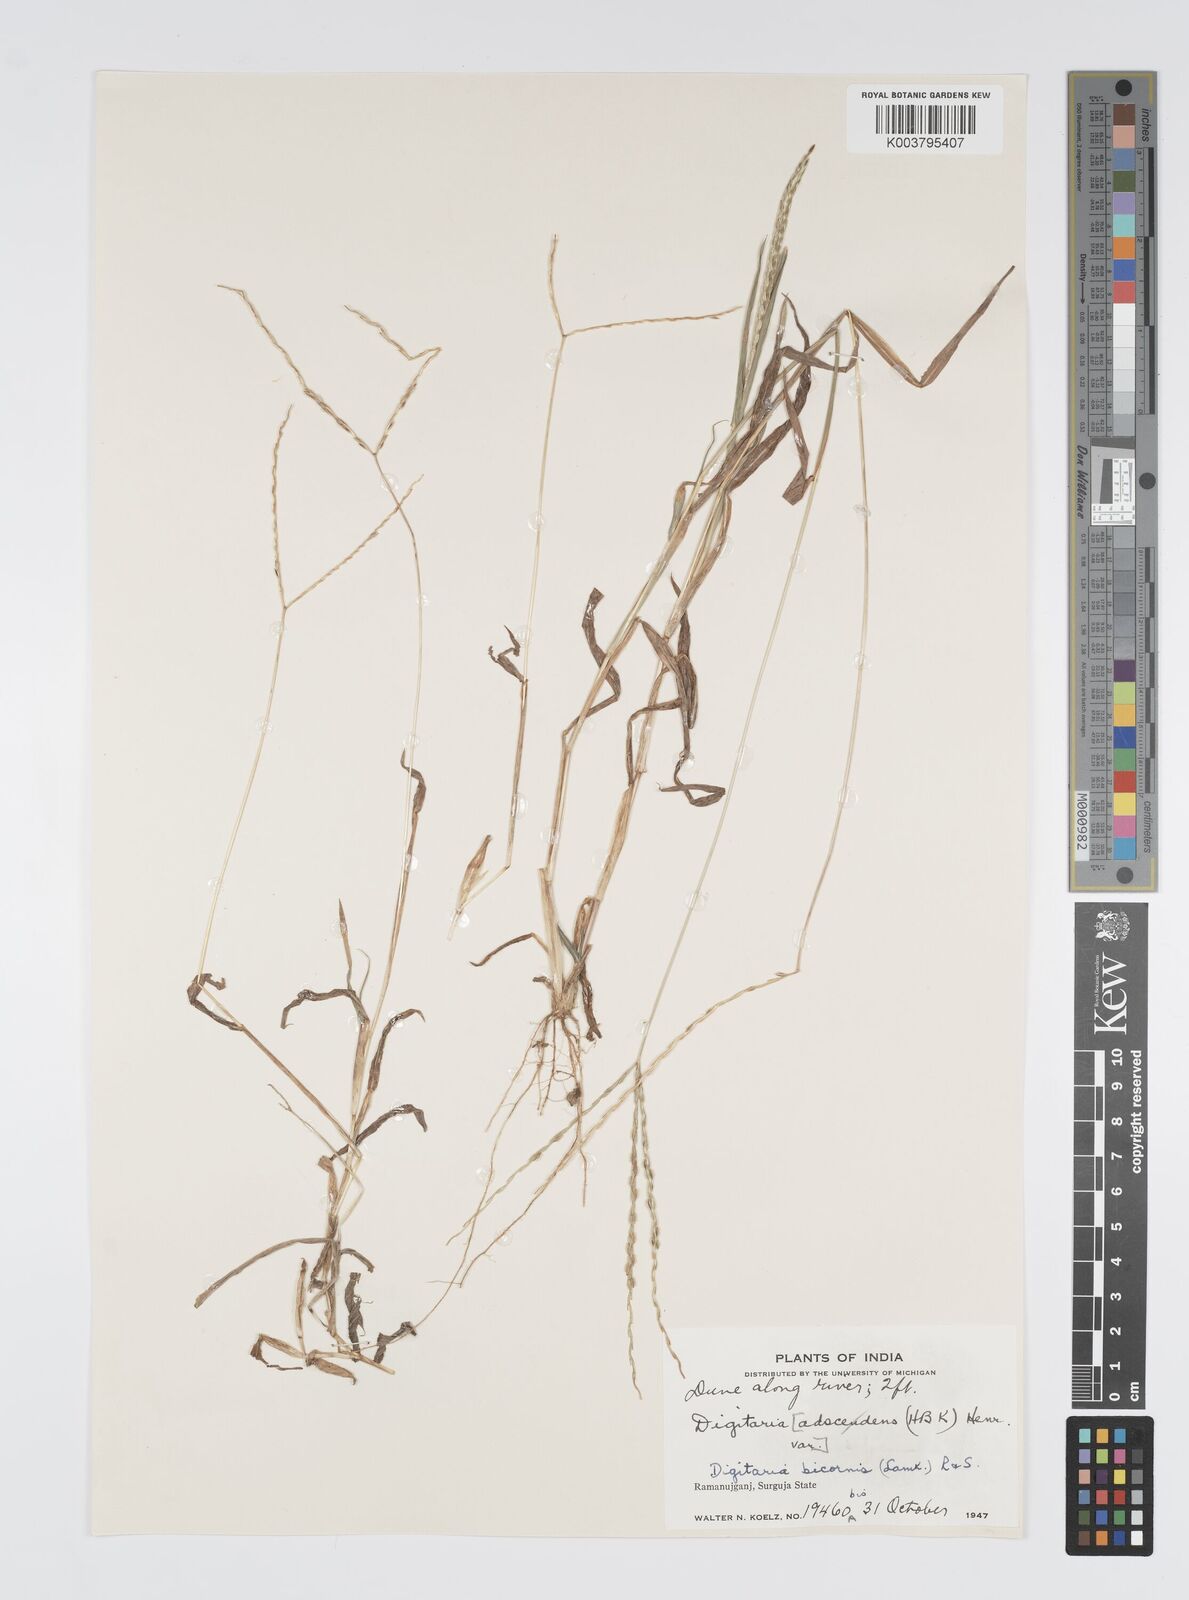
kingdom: Plantae
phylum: Tracheophyta
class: Liliopsida
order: Poales
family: Poaceae
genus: Digitaria
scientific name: Digitaria ciliaris
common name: Tropical finger-grass
